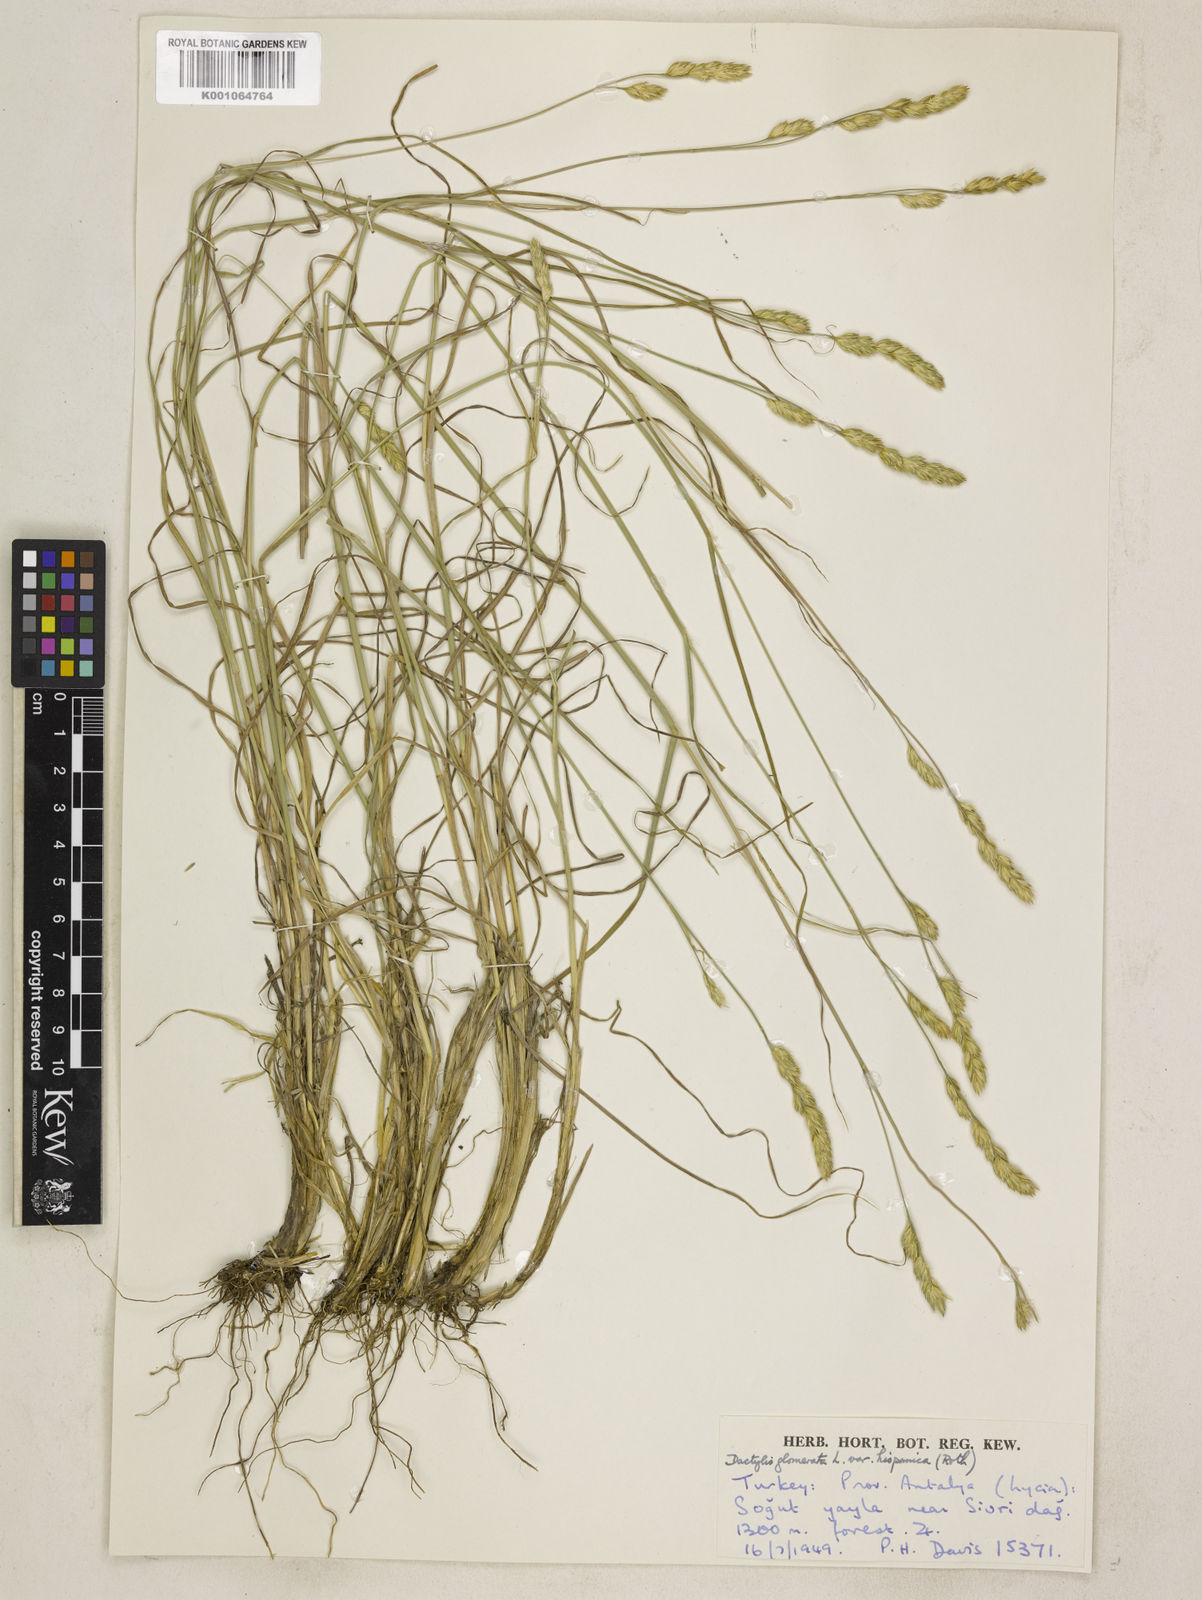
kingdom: Plantae
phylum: Tracheophyta
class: Liliopsida
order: Poales
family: Poaceae
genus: Dactylis
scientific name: Dactylis glomerata
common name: Orchardgrass
